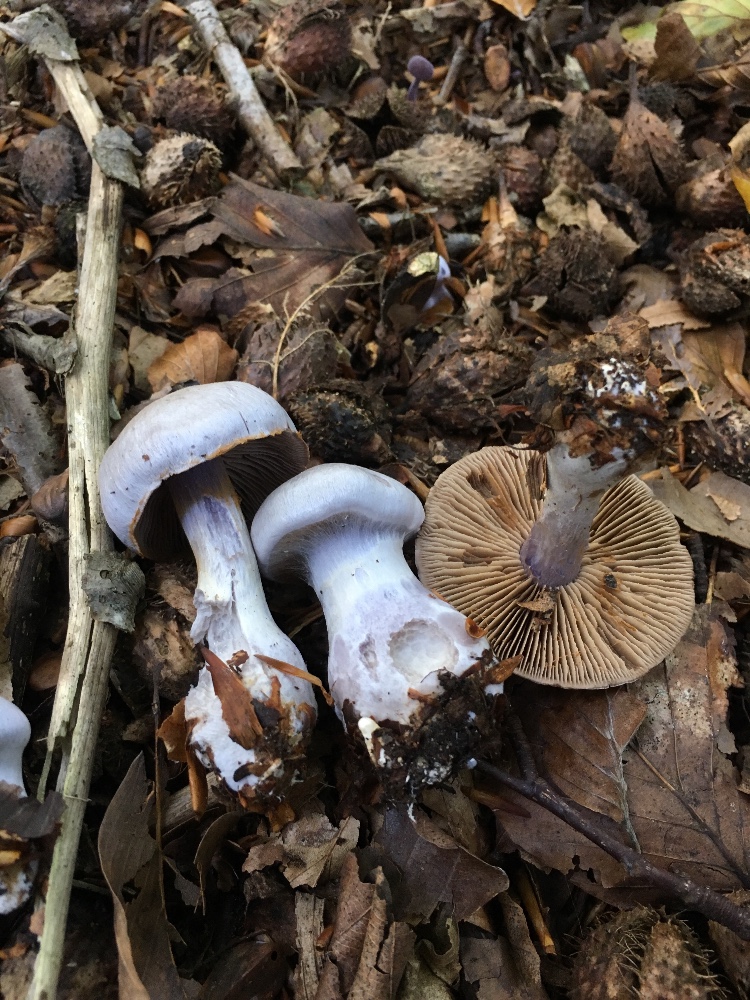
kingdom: Fungi
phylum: Basidiomycota
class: Agaricomycetes
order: Agaricales
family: Cortinariaceae
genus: Cortinarius
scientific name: Cortinarius alboviolaceus
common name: lysviolet slørhat
